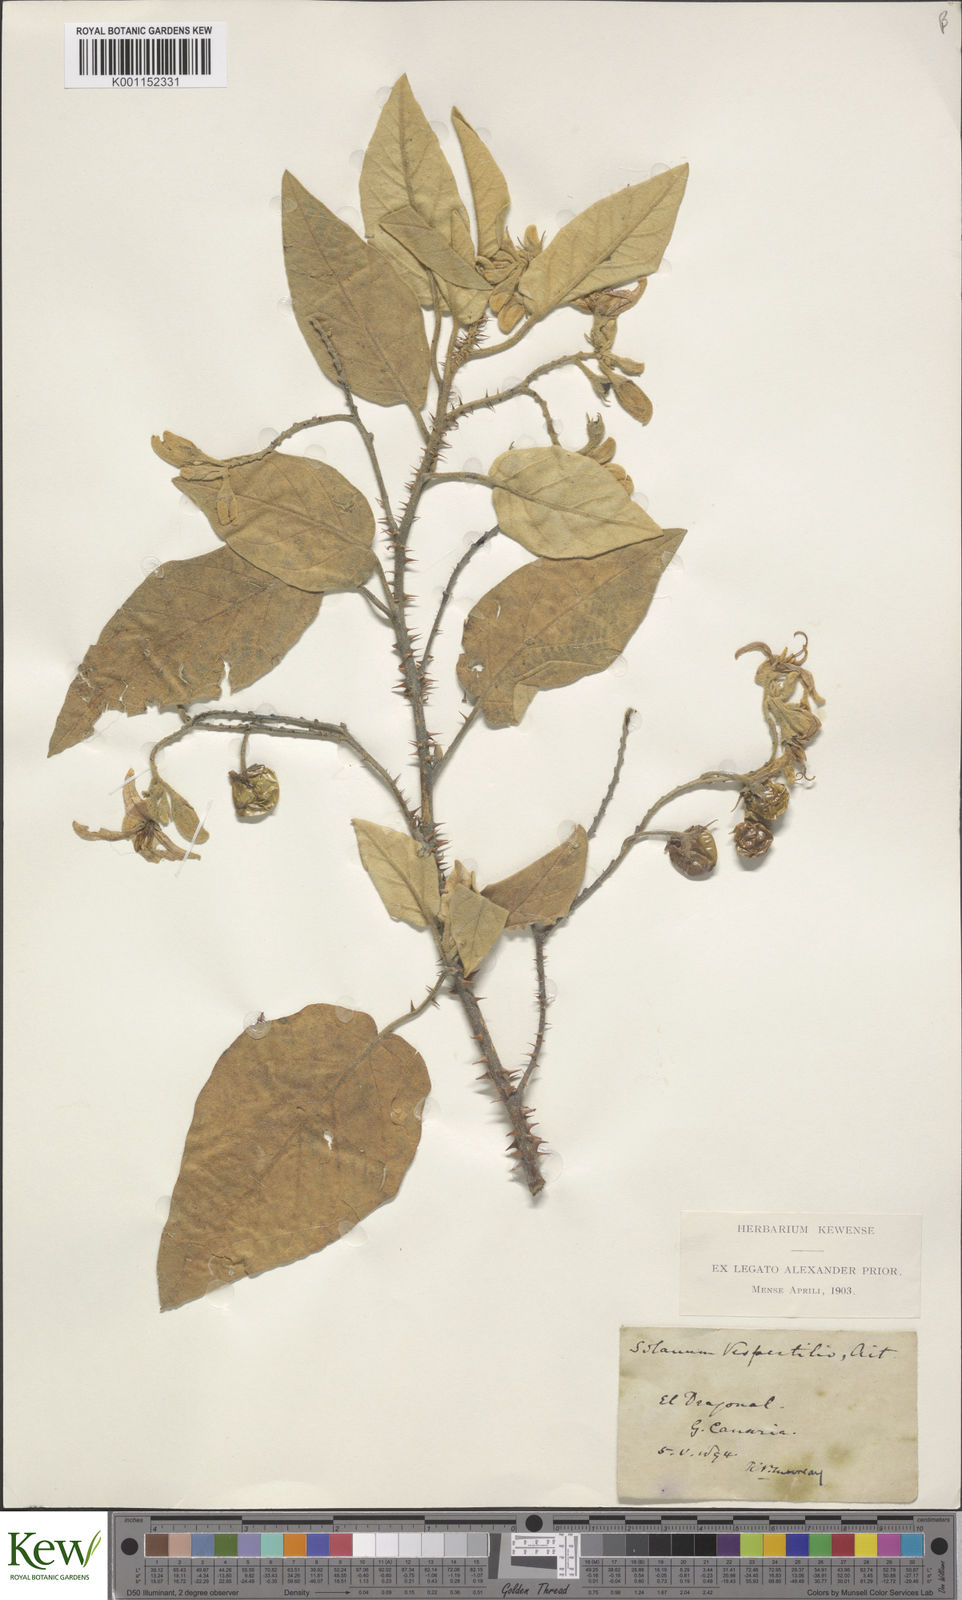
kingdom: Plantae
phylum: Tracheophyta
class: Magnoliopsida
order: Solanales
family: Solanaceae
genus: Solanum
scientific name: Solanum vespertilio
